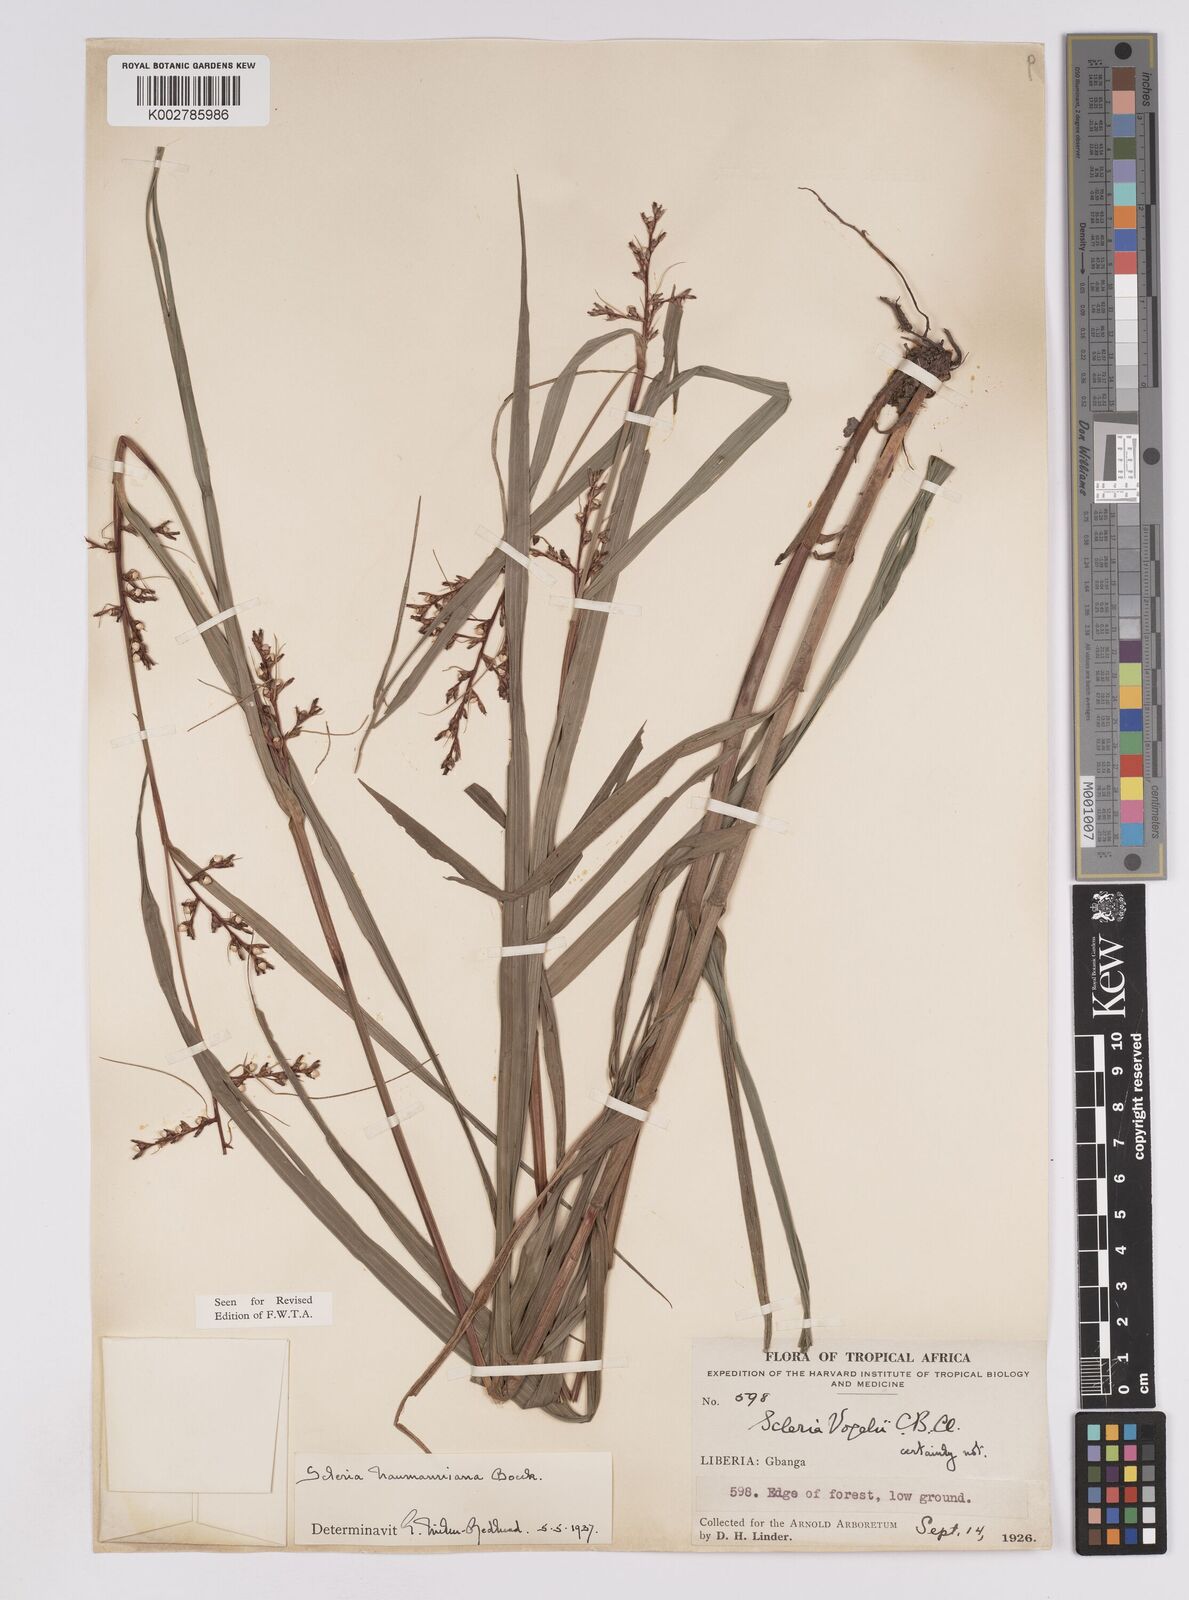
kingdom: Plantae
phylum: Tracheophyta
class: Liliopsida
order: Poales
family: Cyperaceae
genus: Scleria
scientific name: Scleria naumanniana
